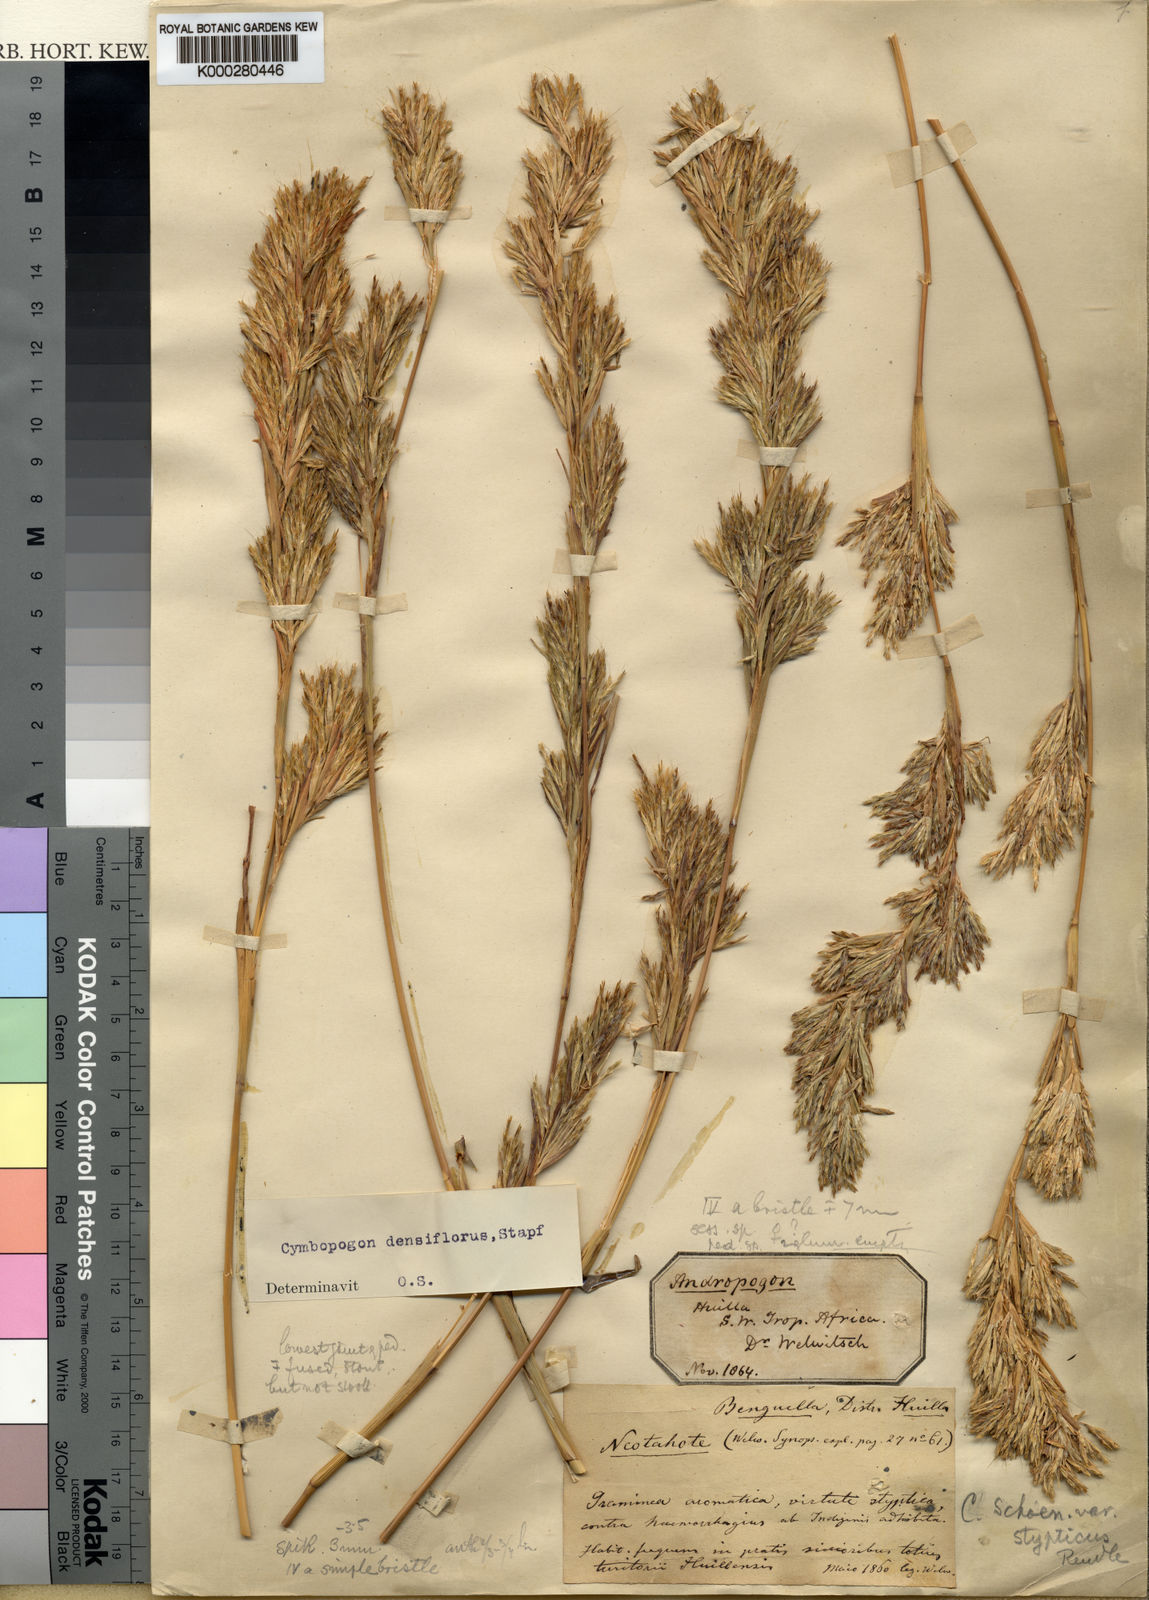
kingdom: Plantae
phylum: Tracheophyta
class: Liliopsida
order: Poales
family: Poaceae
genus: Cymbopogon
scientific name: Cymbopogon densiflorus
